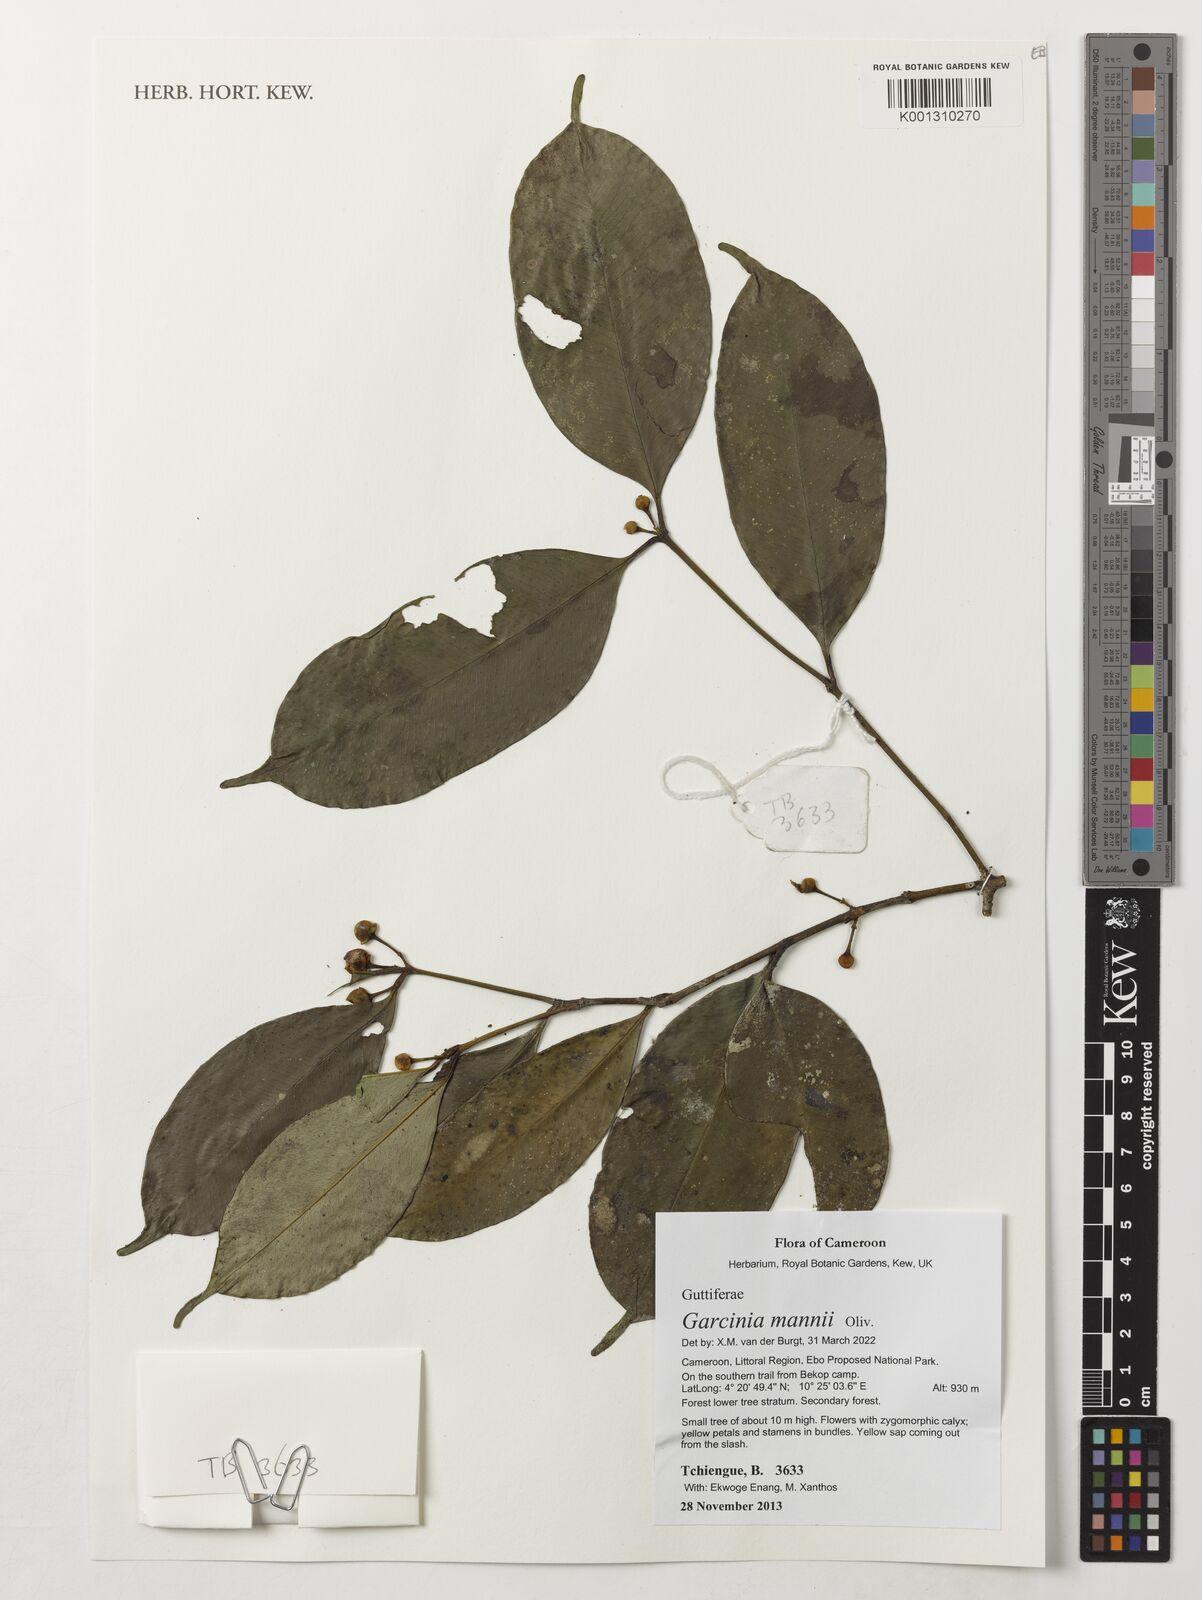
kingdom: Plantae
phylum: Tracheophyta
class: Magnoliopsida
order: Malpighiales
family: Clusiaceae
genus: Garcinia
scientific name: Garcinia mannii
